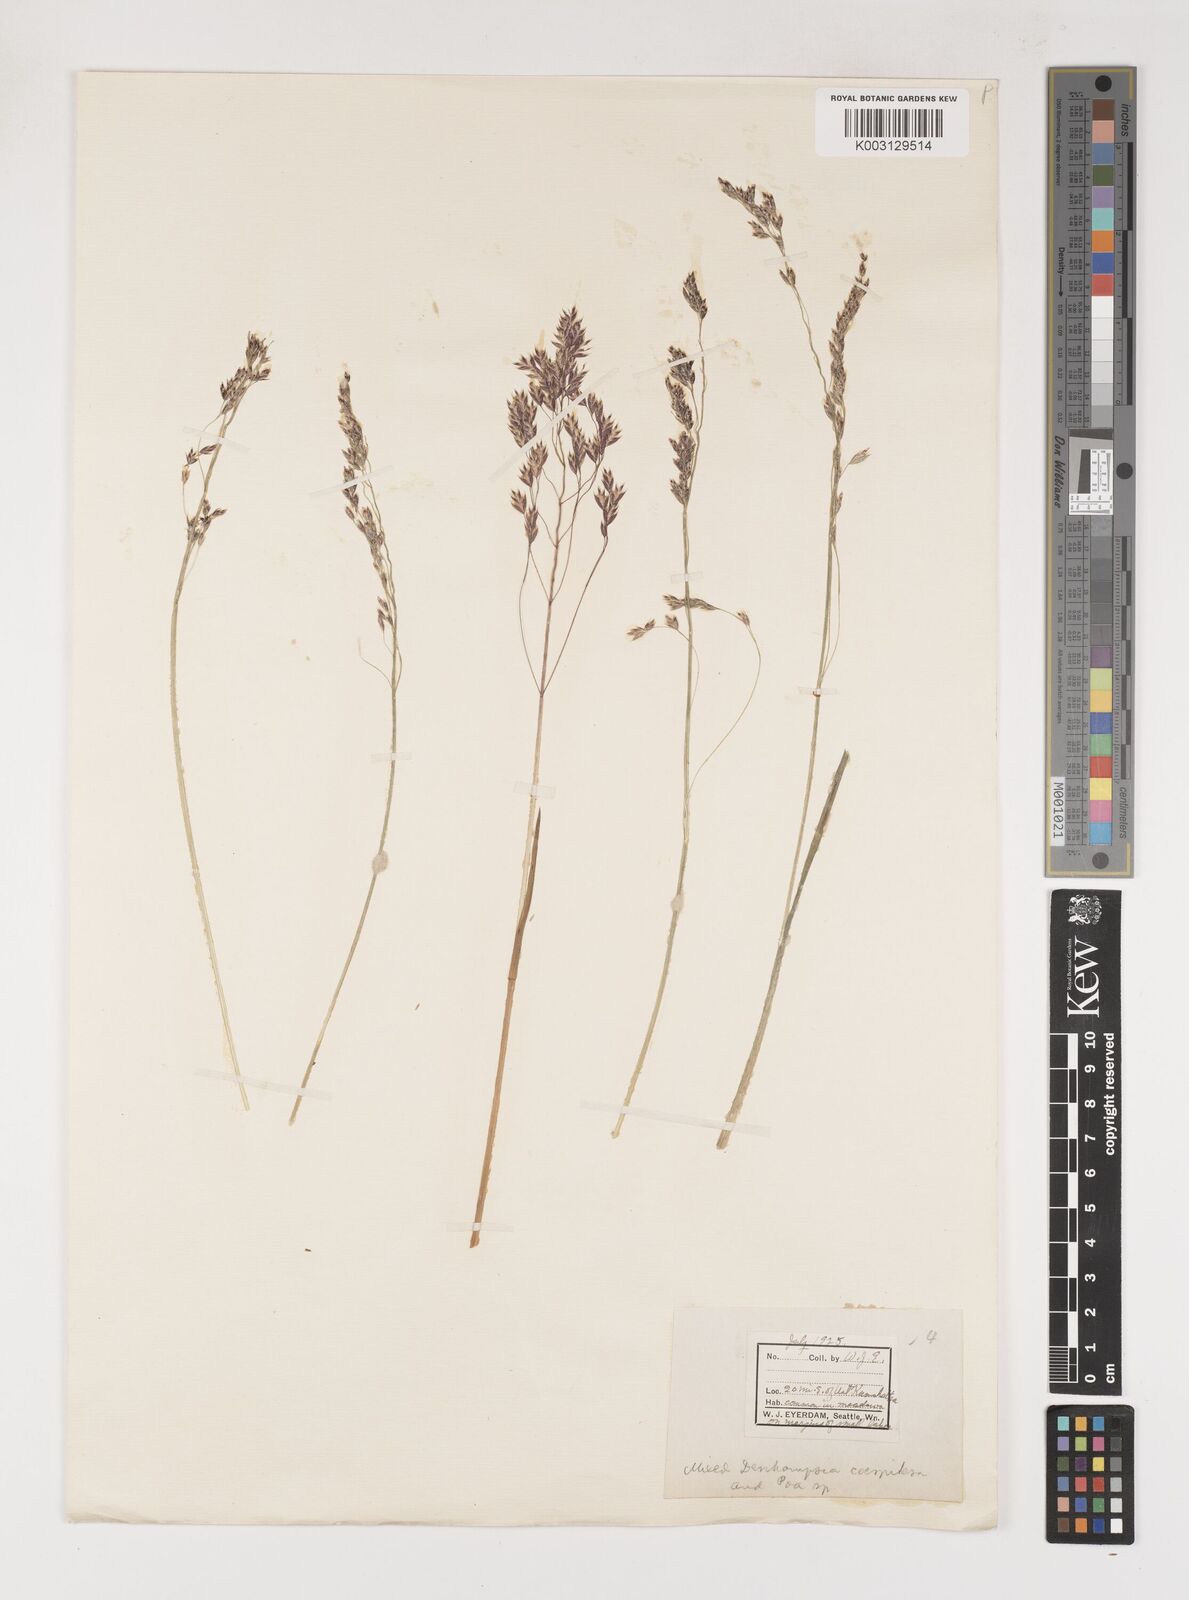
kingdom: Plantae
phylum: Tracheophyta
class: Liliopsida
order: Poales
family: Poaceae
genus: Poa
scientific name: Poa
